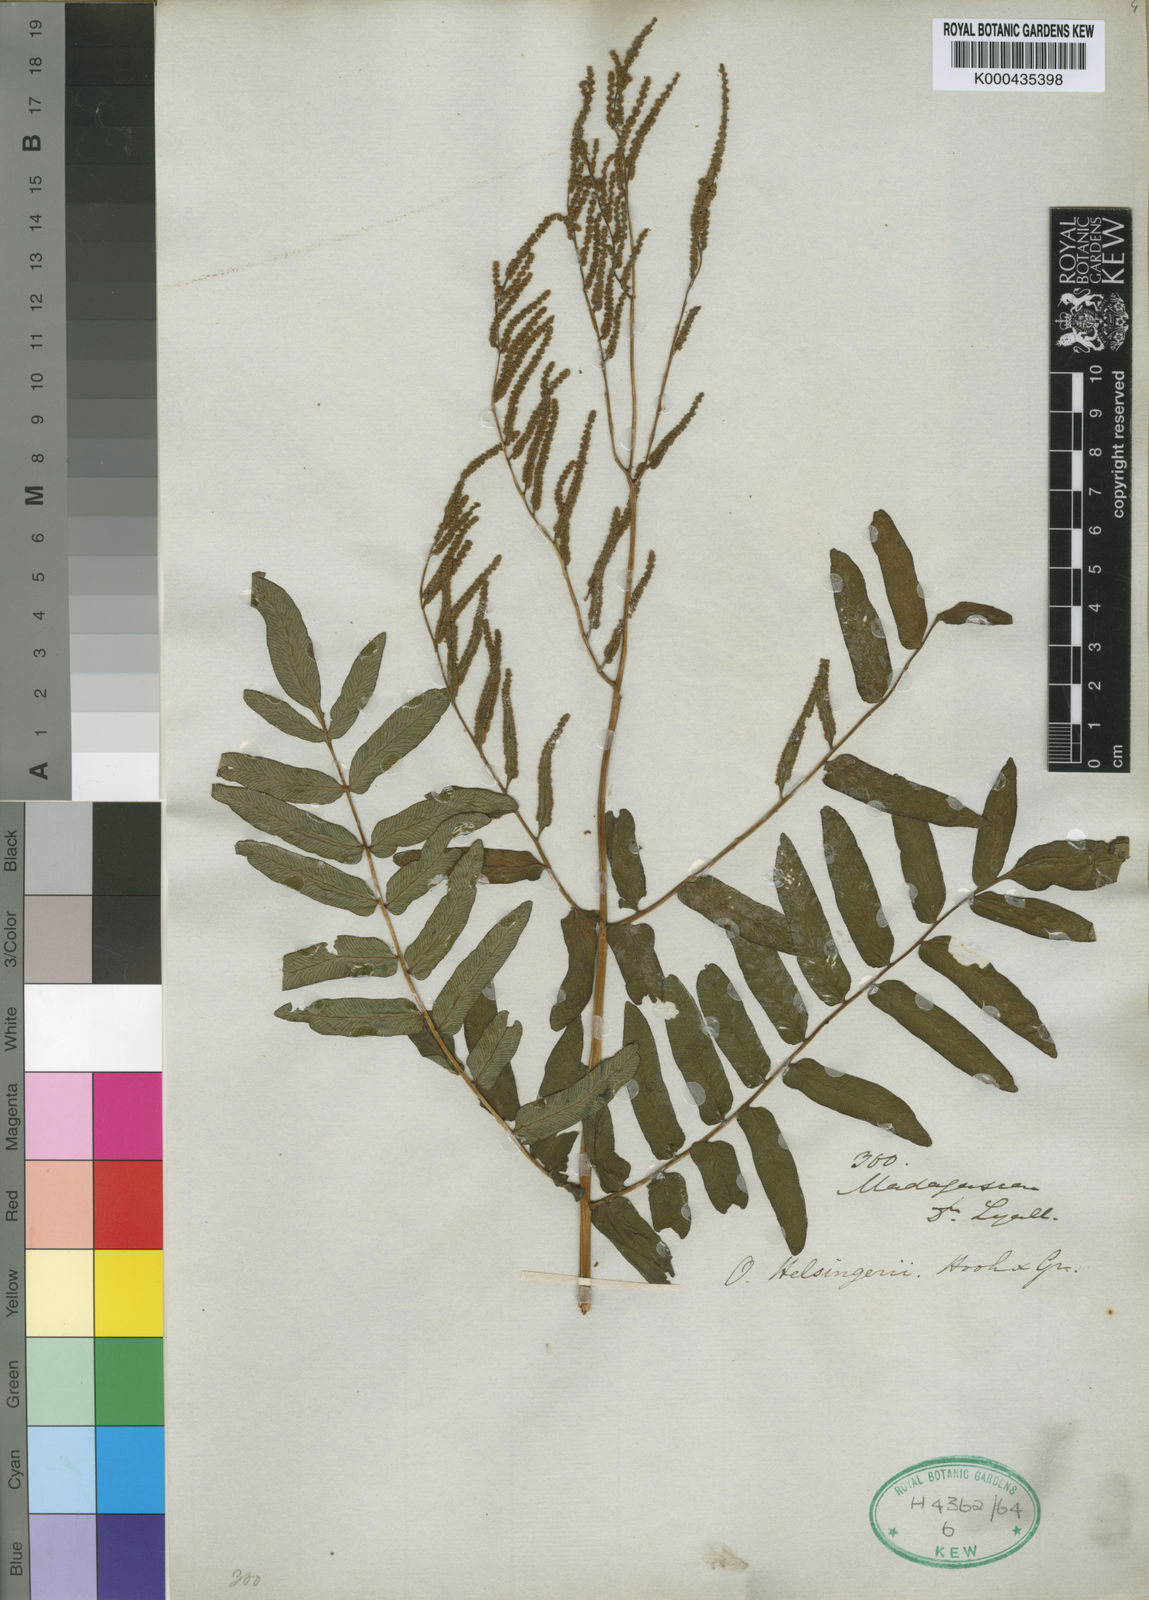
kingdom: Plantae
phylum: Tracheophyta
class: Polypodiopsida
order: Osmundales
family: Osmundaceae
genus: Osmunda
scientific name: Osmunda regalis
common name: Royal fern
